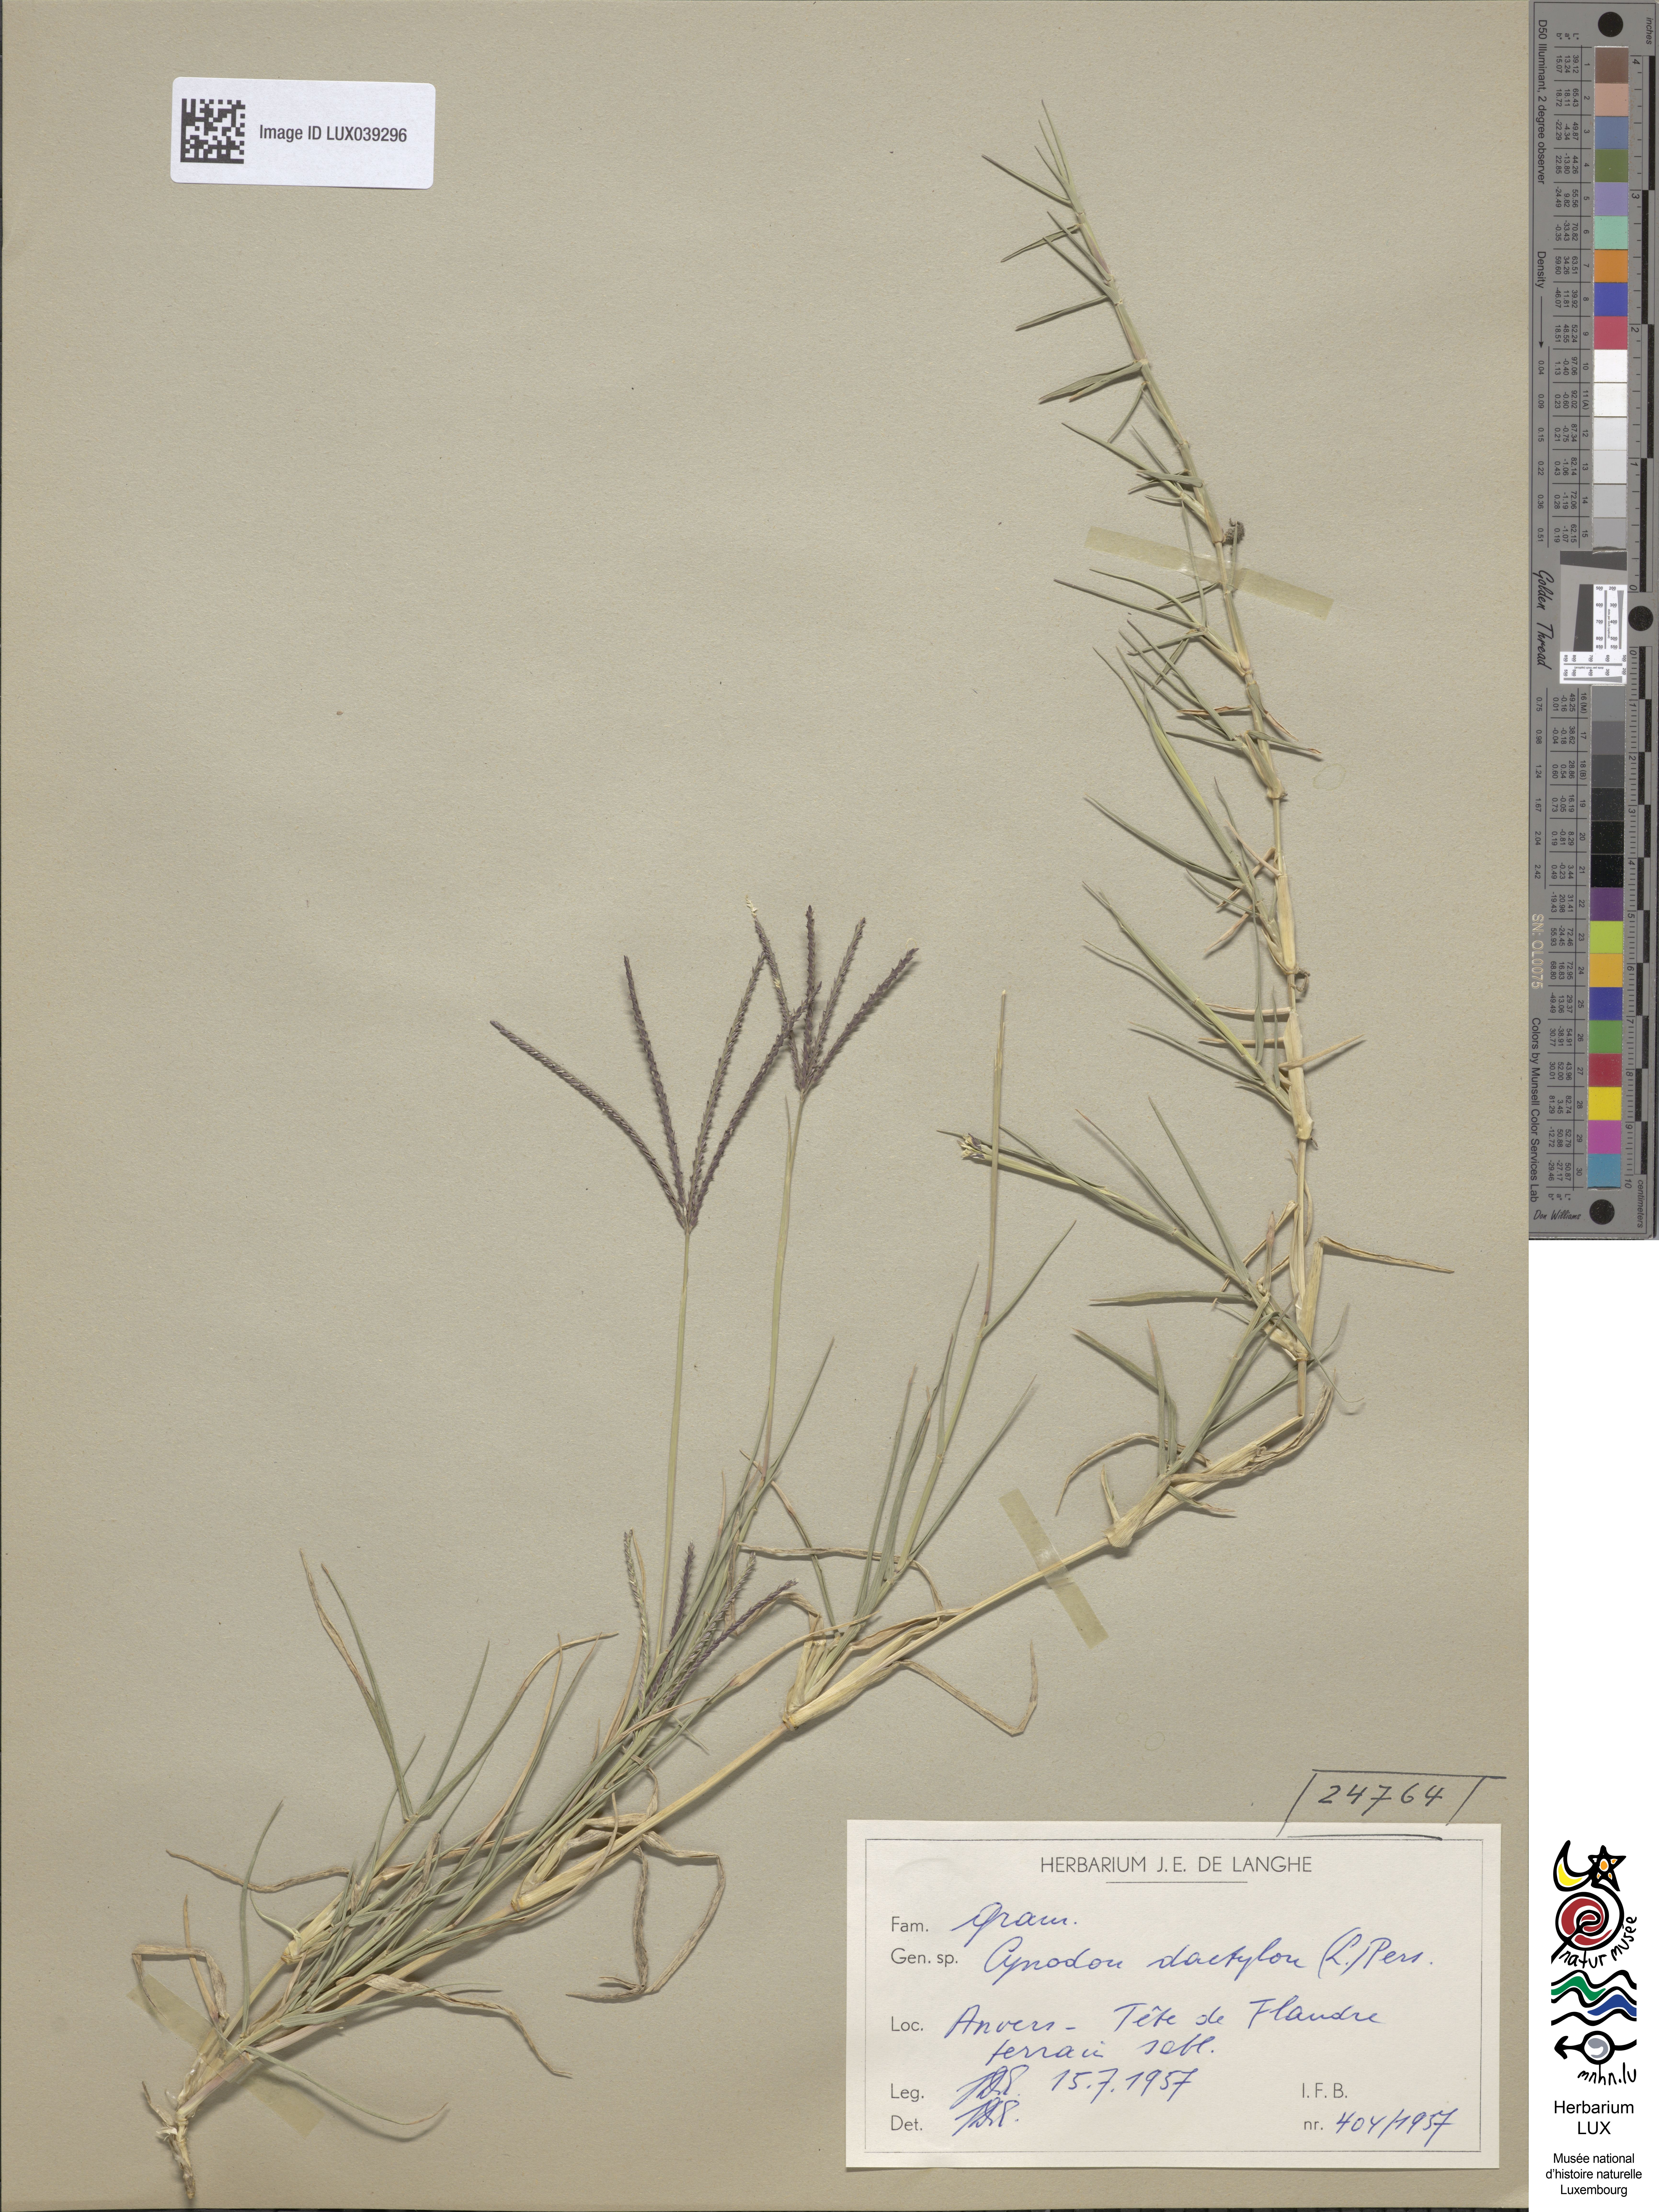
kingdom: Plantae
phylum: Tracheophyta
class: Liliopsida
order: Poales
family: Poaceae
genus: Cynodon
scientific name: Cynodon dactylon
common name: Bermuda grass
